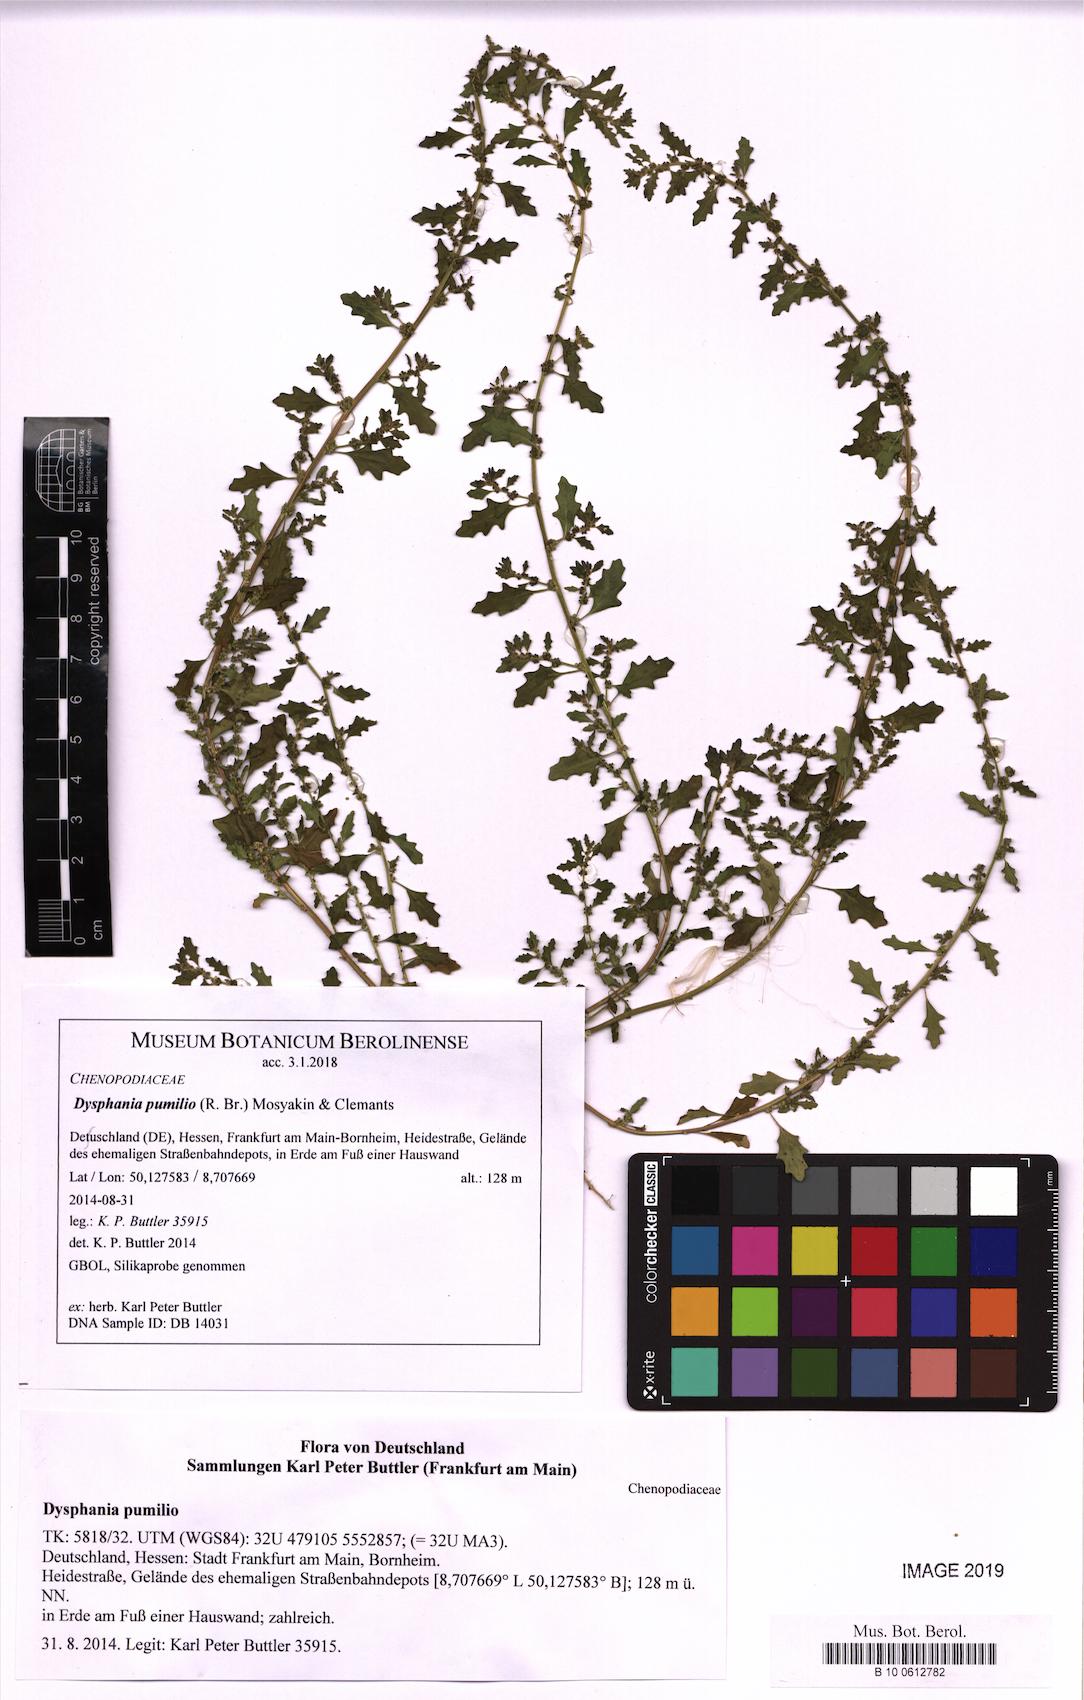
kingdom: Plantae
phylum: Tracheophyta
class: Magnoliopsida
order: Caryophyllales
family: Amaranthaceae
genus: Dysphania
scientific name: Dysphania pumilio
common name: Clammy goosefoot
